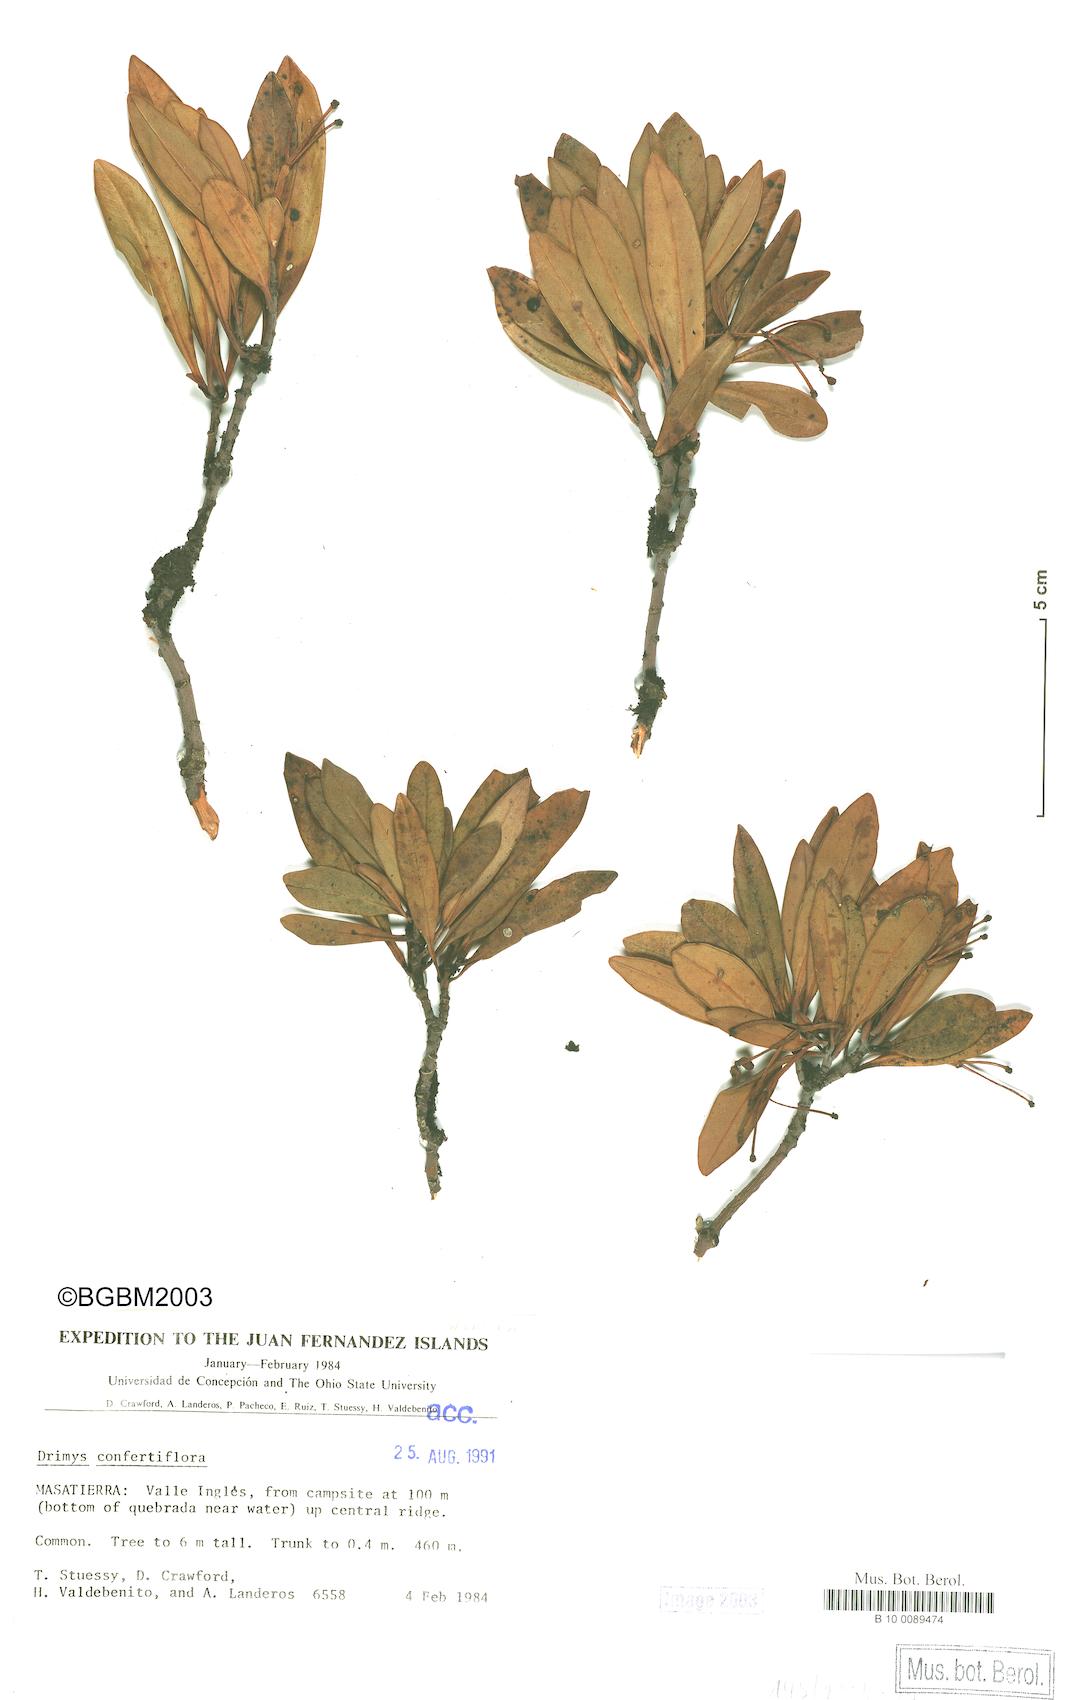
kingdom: Plantae
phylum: Tracheophyta
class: Magnoliopsida
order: Canellales
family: Winteraceae
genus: Drimys
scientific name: Drimys confertiflora
